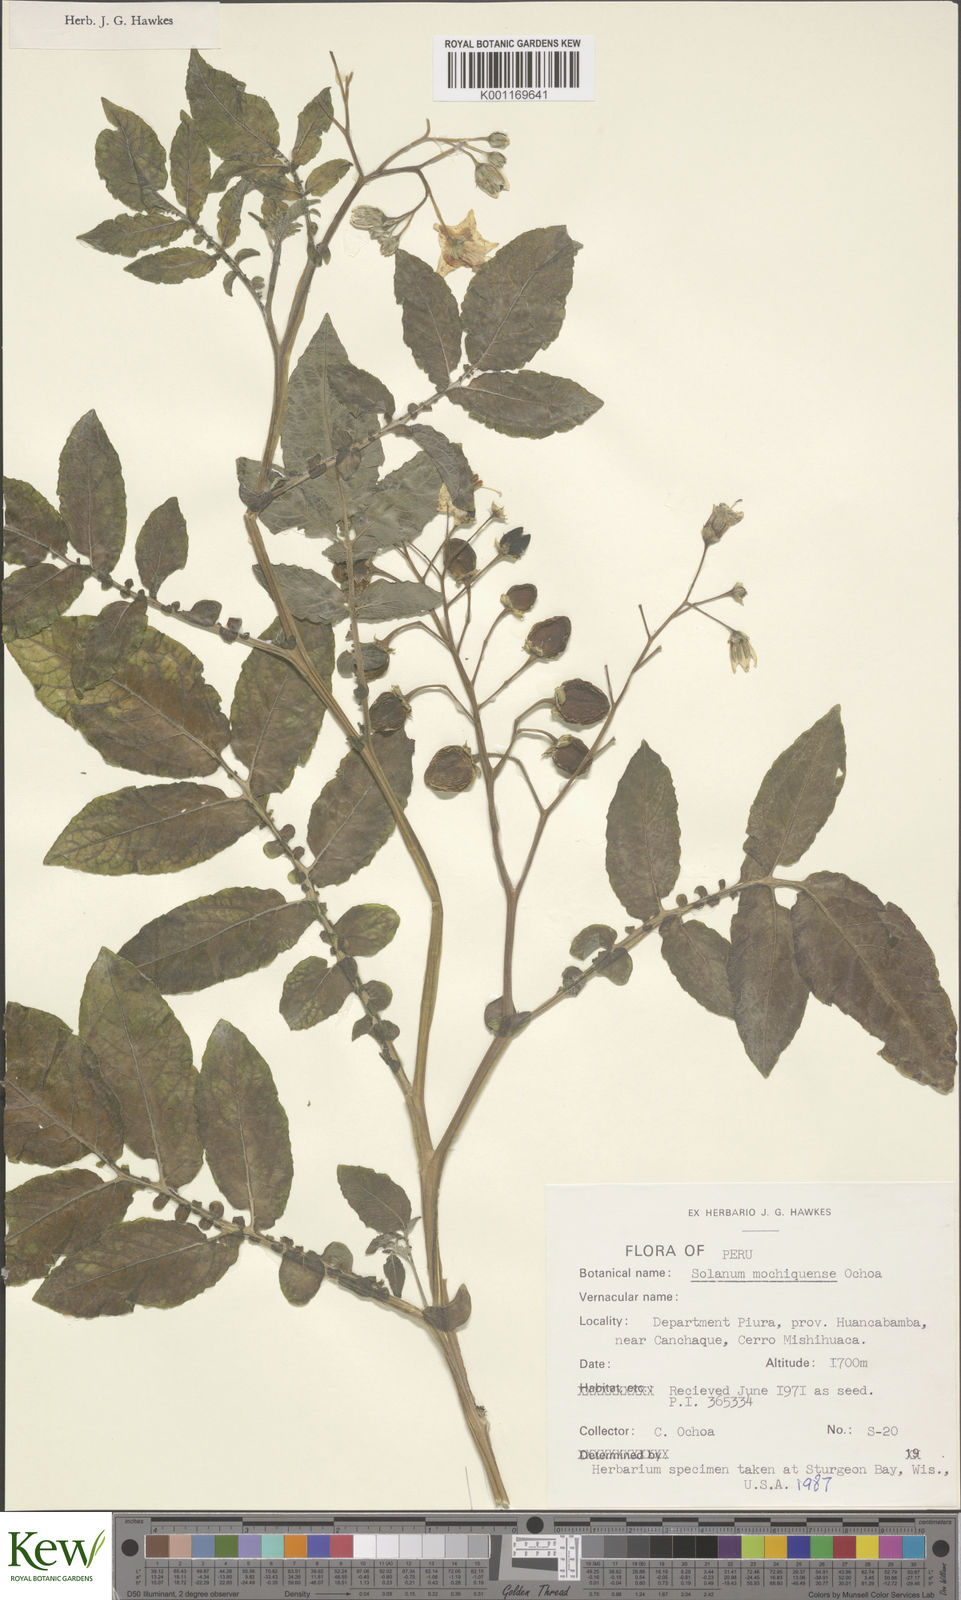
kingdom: Plantae
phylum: Tracheophyta
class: Magnoliopsida
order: Solanales
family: Solanaceae
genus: Solanum
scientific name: Solanum mochiquense
